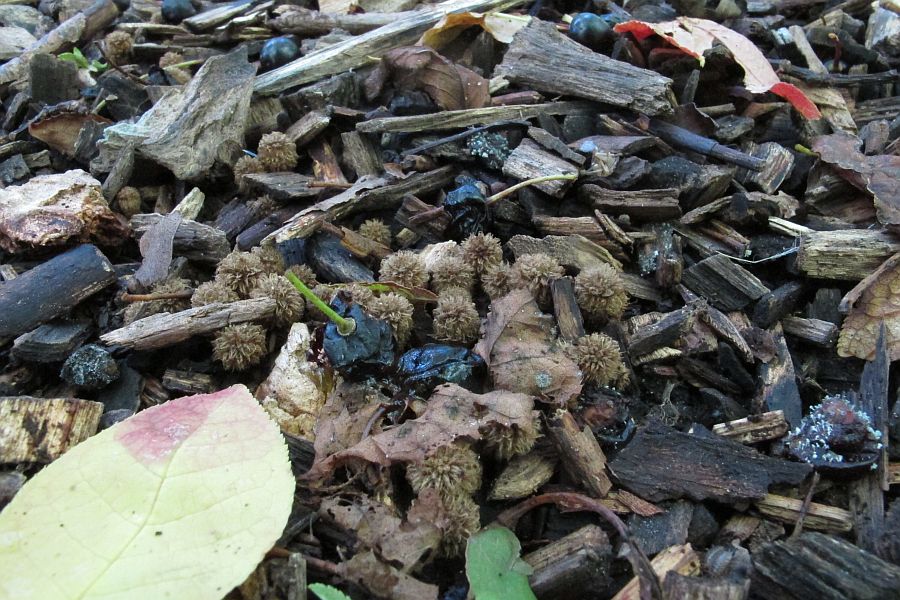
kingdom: Fungi
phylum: Basidiomycota
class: Agaricomycetes
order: Agaricales
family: Agaricaceae
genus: Cyathus
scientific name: Cyathus striatus
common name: stribet redesvamp
